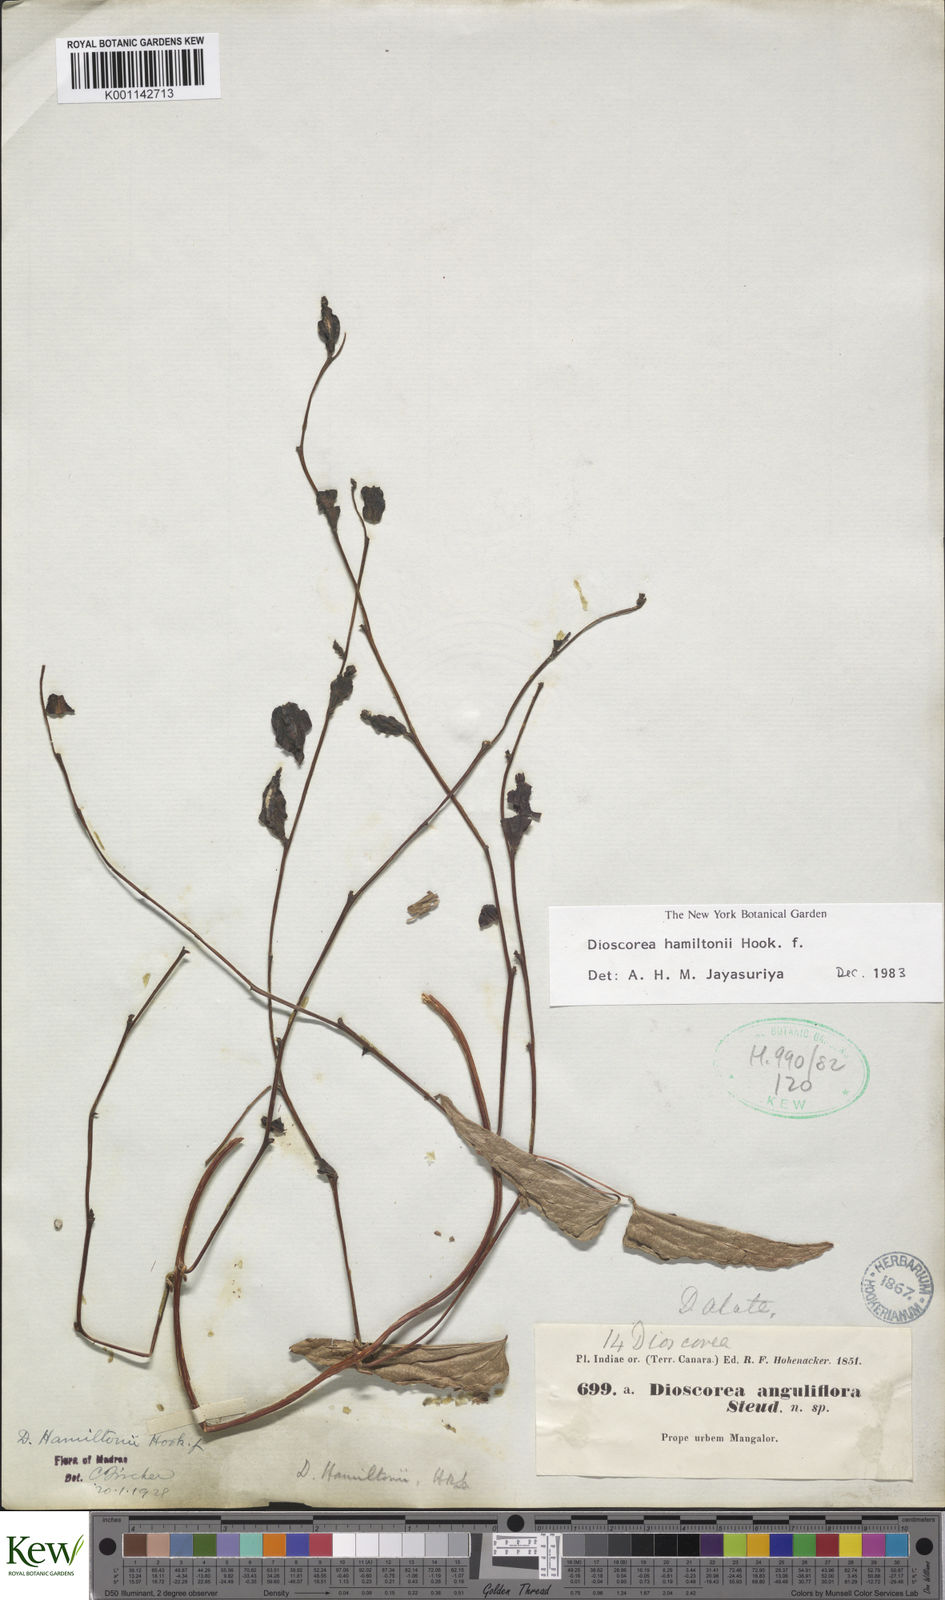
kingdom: Plantae
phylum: Tracheophyta
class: Liliopsida
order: Dioscoreales
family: Dioscoreaceae
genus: Dioscorea
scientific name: Dioscorea hamiltonii
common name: Mountain yam
